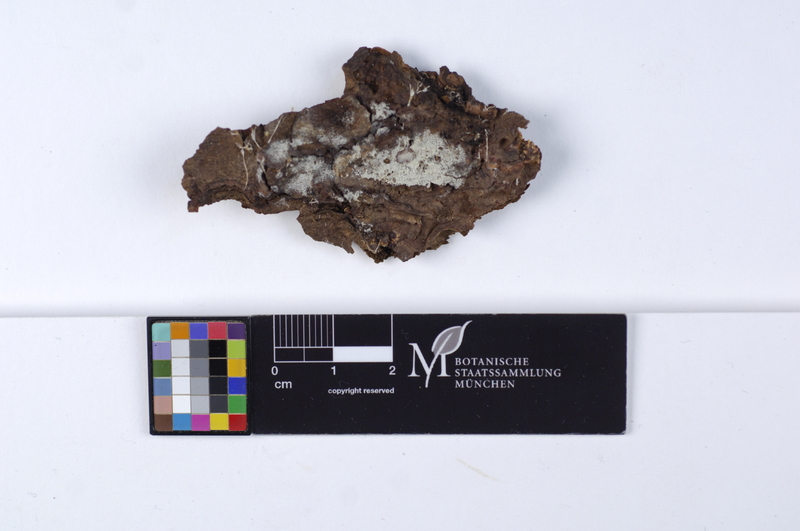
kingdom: Plantae
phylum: Tracheophyta
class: Pinopsida
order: Pinales
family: Pinaceae
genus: Pinus
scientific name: Pinus
